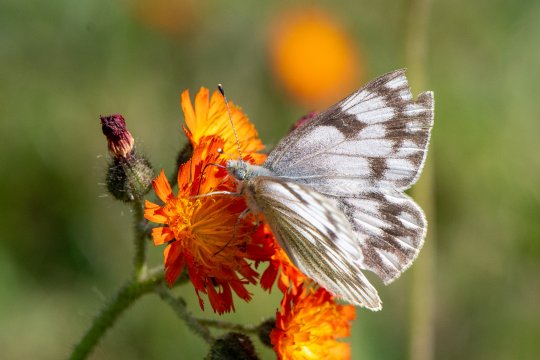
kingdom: Animalia
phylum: Arthropoda
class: Insecta
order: Lepidoptera
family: Pieridae
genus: Pontia
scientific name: Pontia occidentalis
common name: Western White
